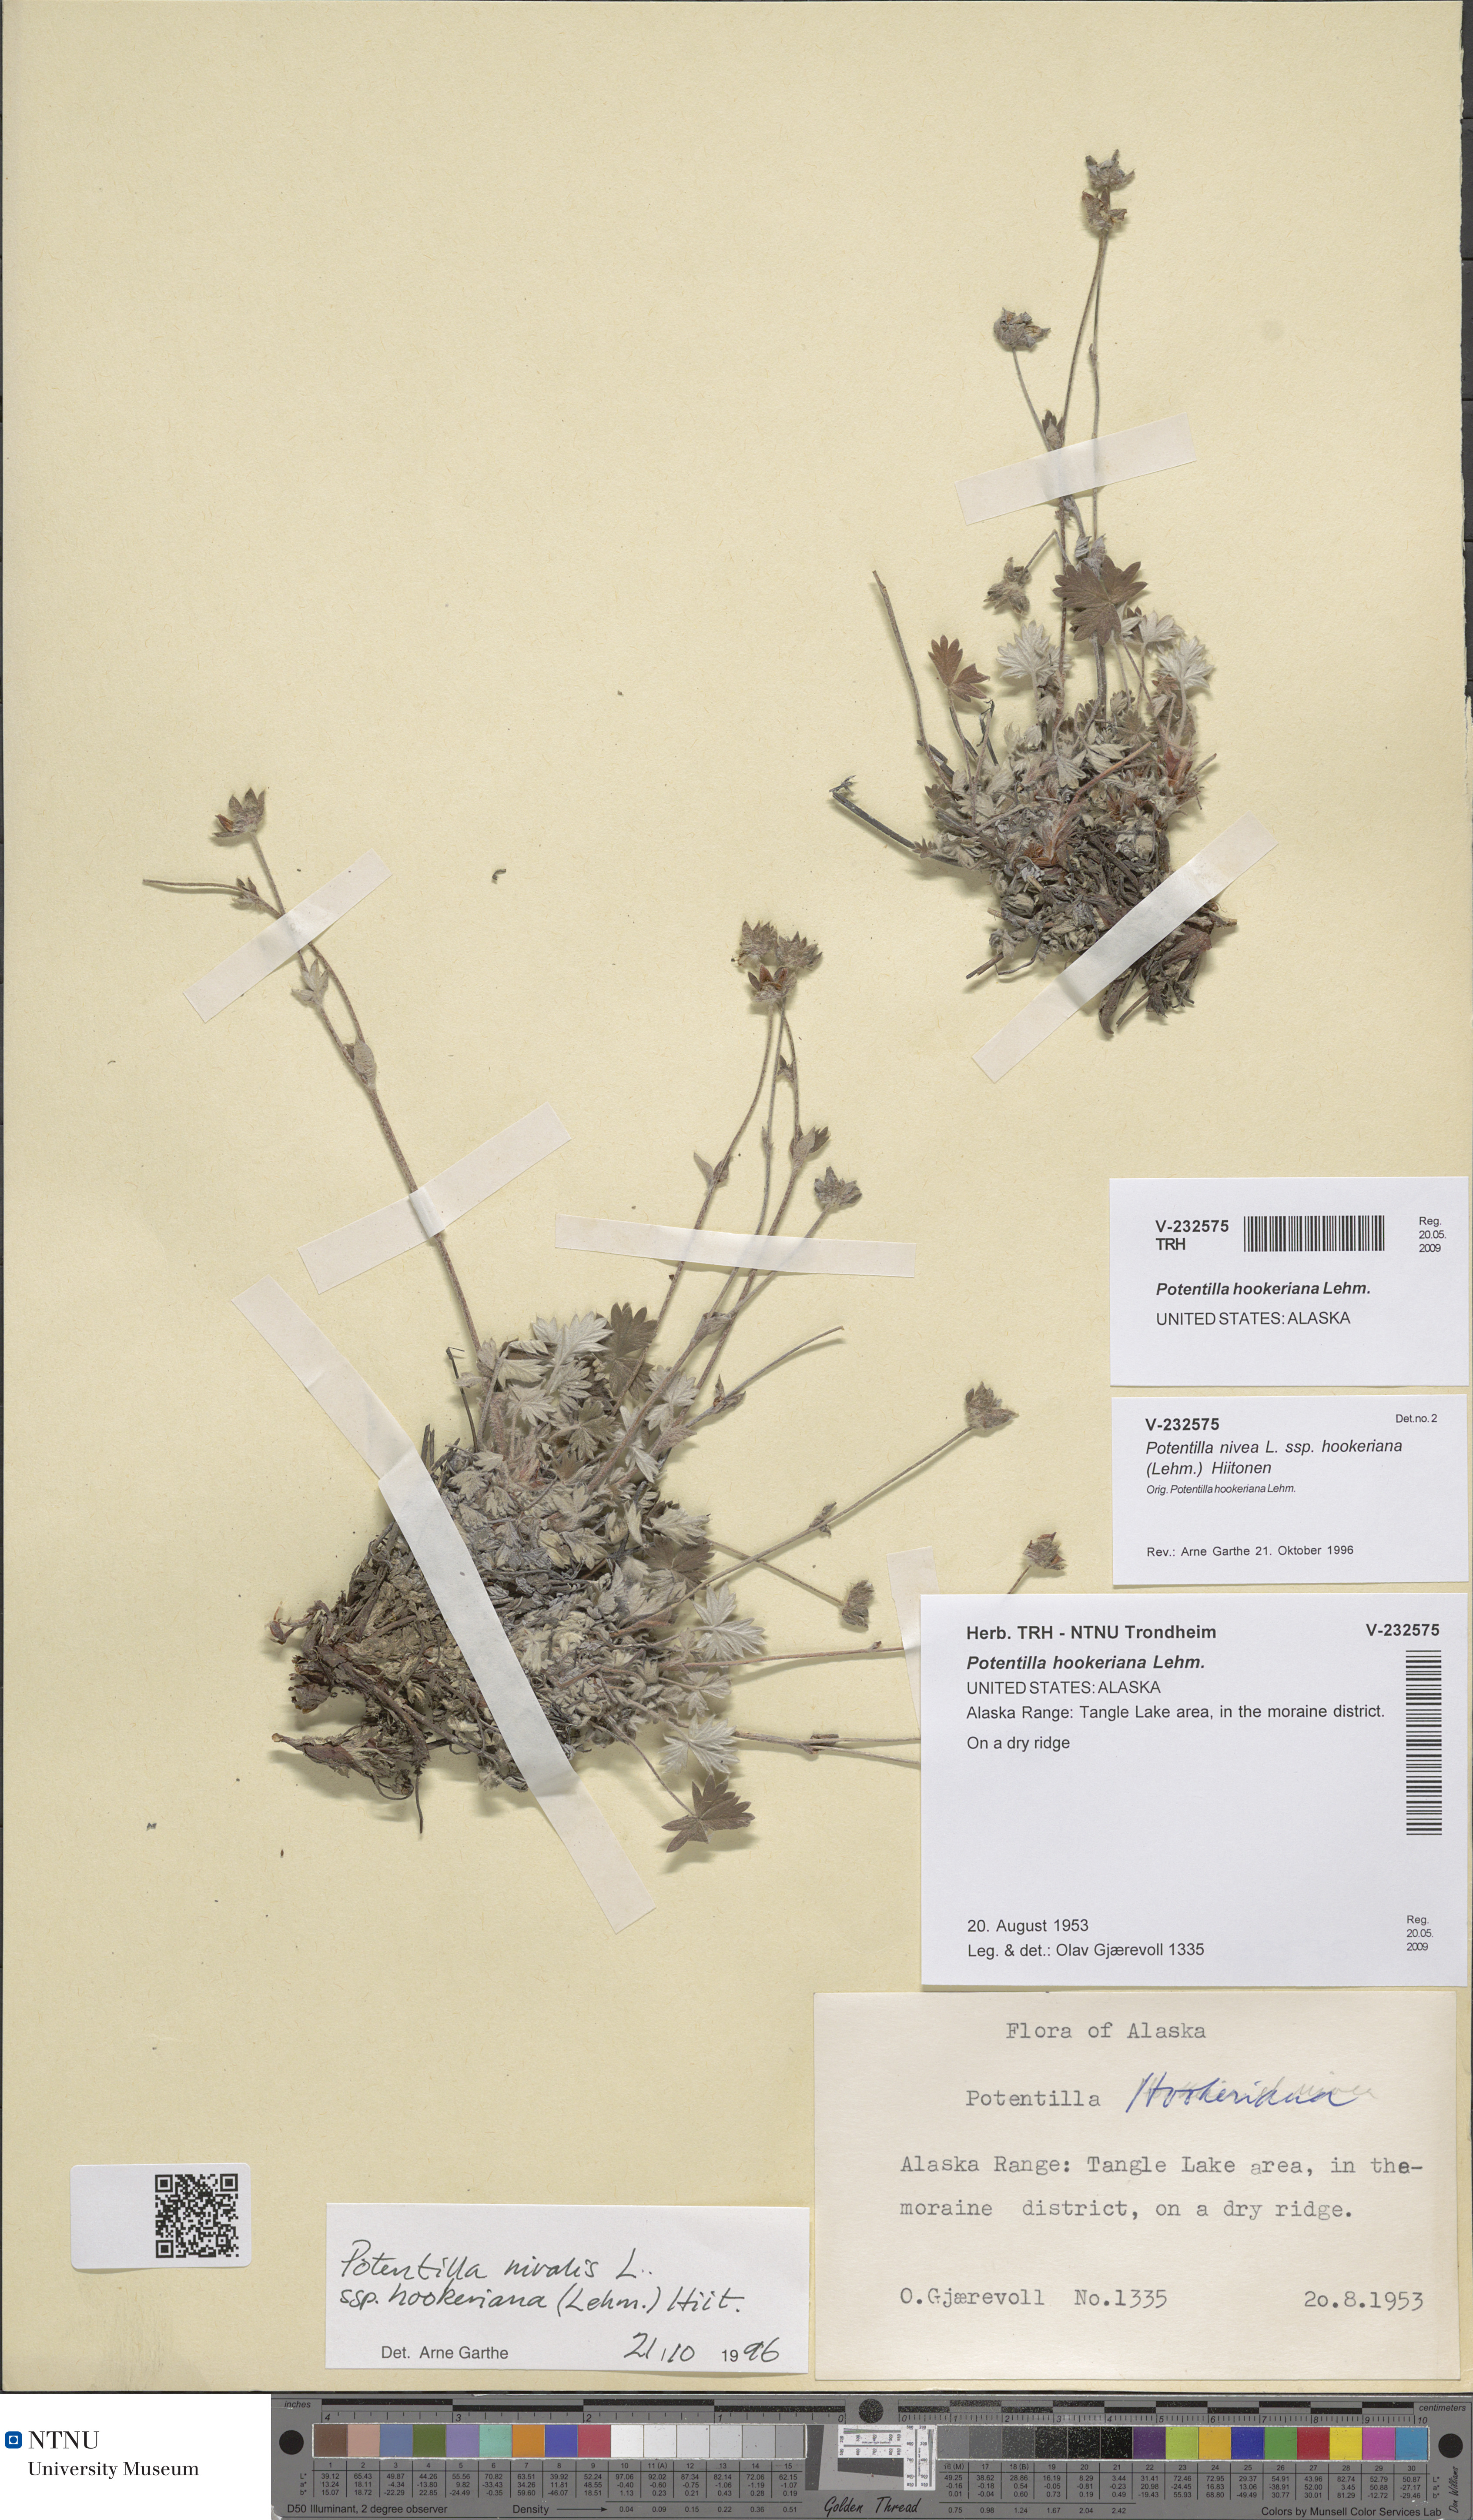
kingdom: Plantae
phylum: Tracheophyta
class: Magnoliopsida
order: Rosales
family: Rosaceae
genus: Potentilla
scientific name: Potentilla hookeriana
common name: Hooker's cinquefoil
